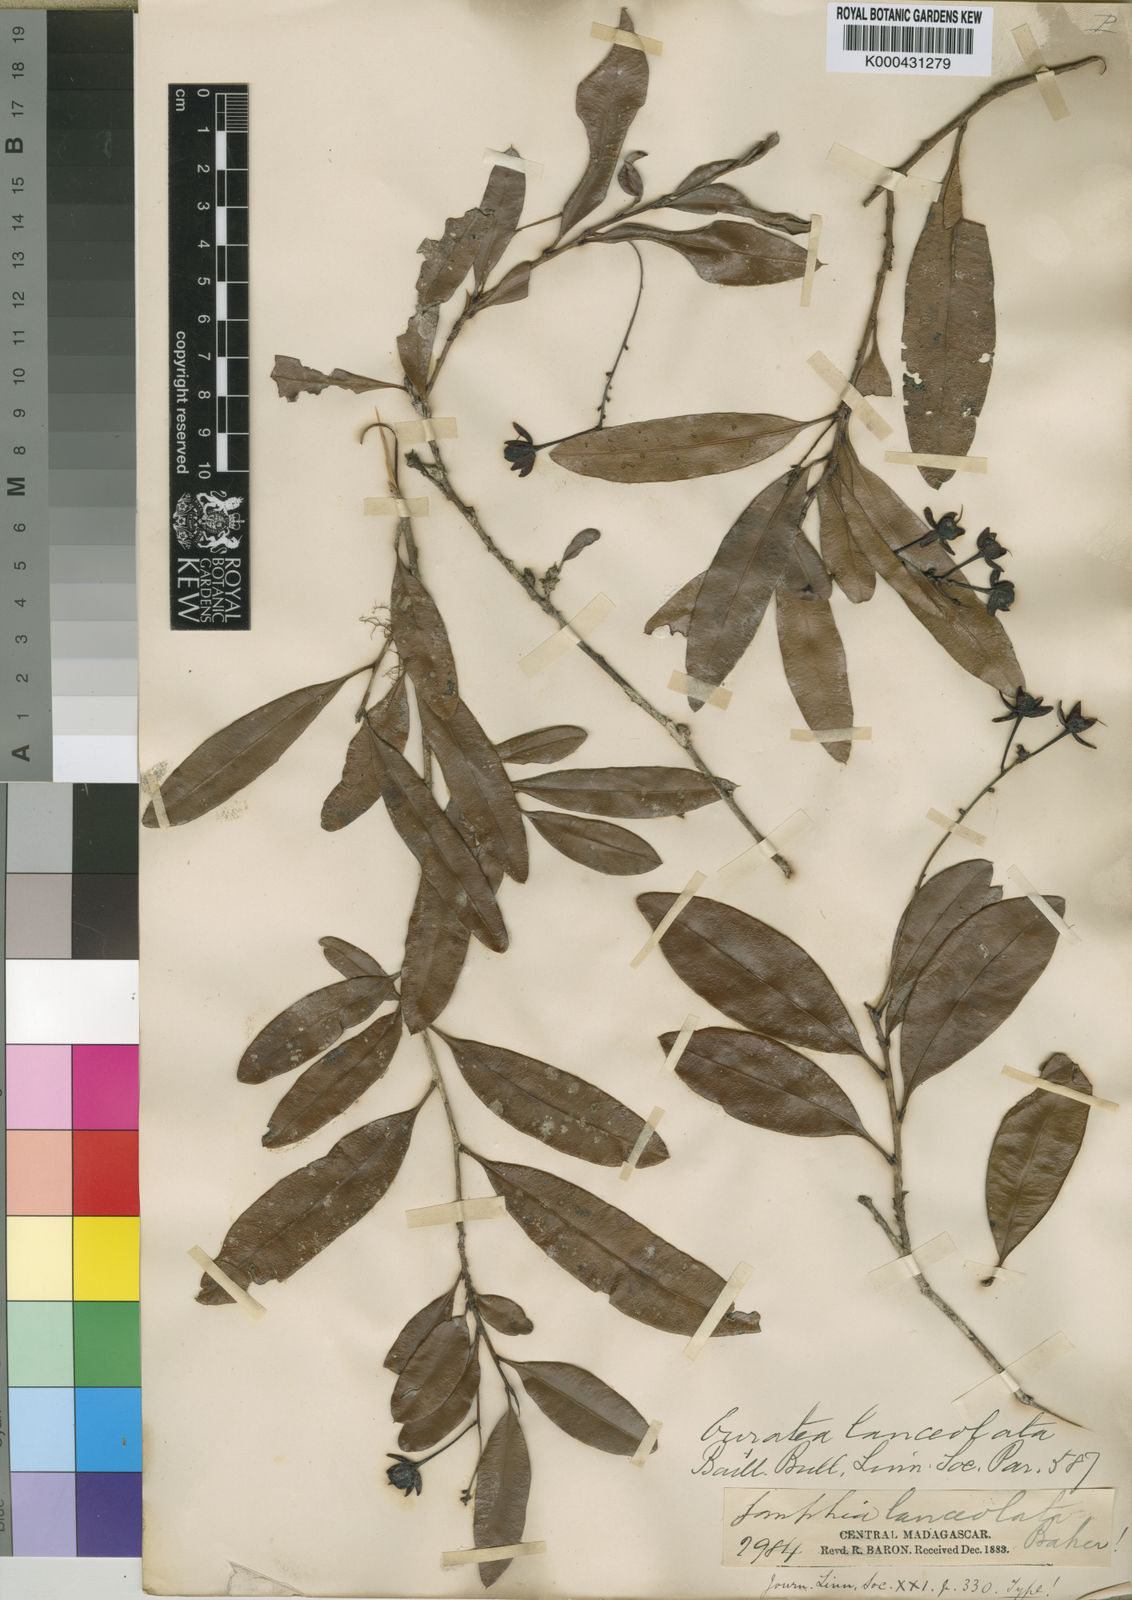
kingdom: Plantae
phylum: Tracheophyta
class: Magnoliopsida
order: Malpighiales
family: Ochnaceae
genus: Campylospermum
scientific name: Campylospermum
